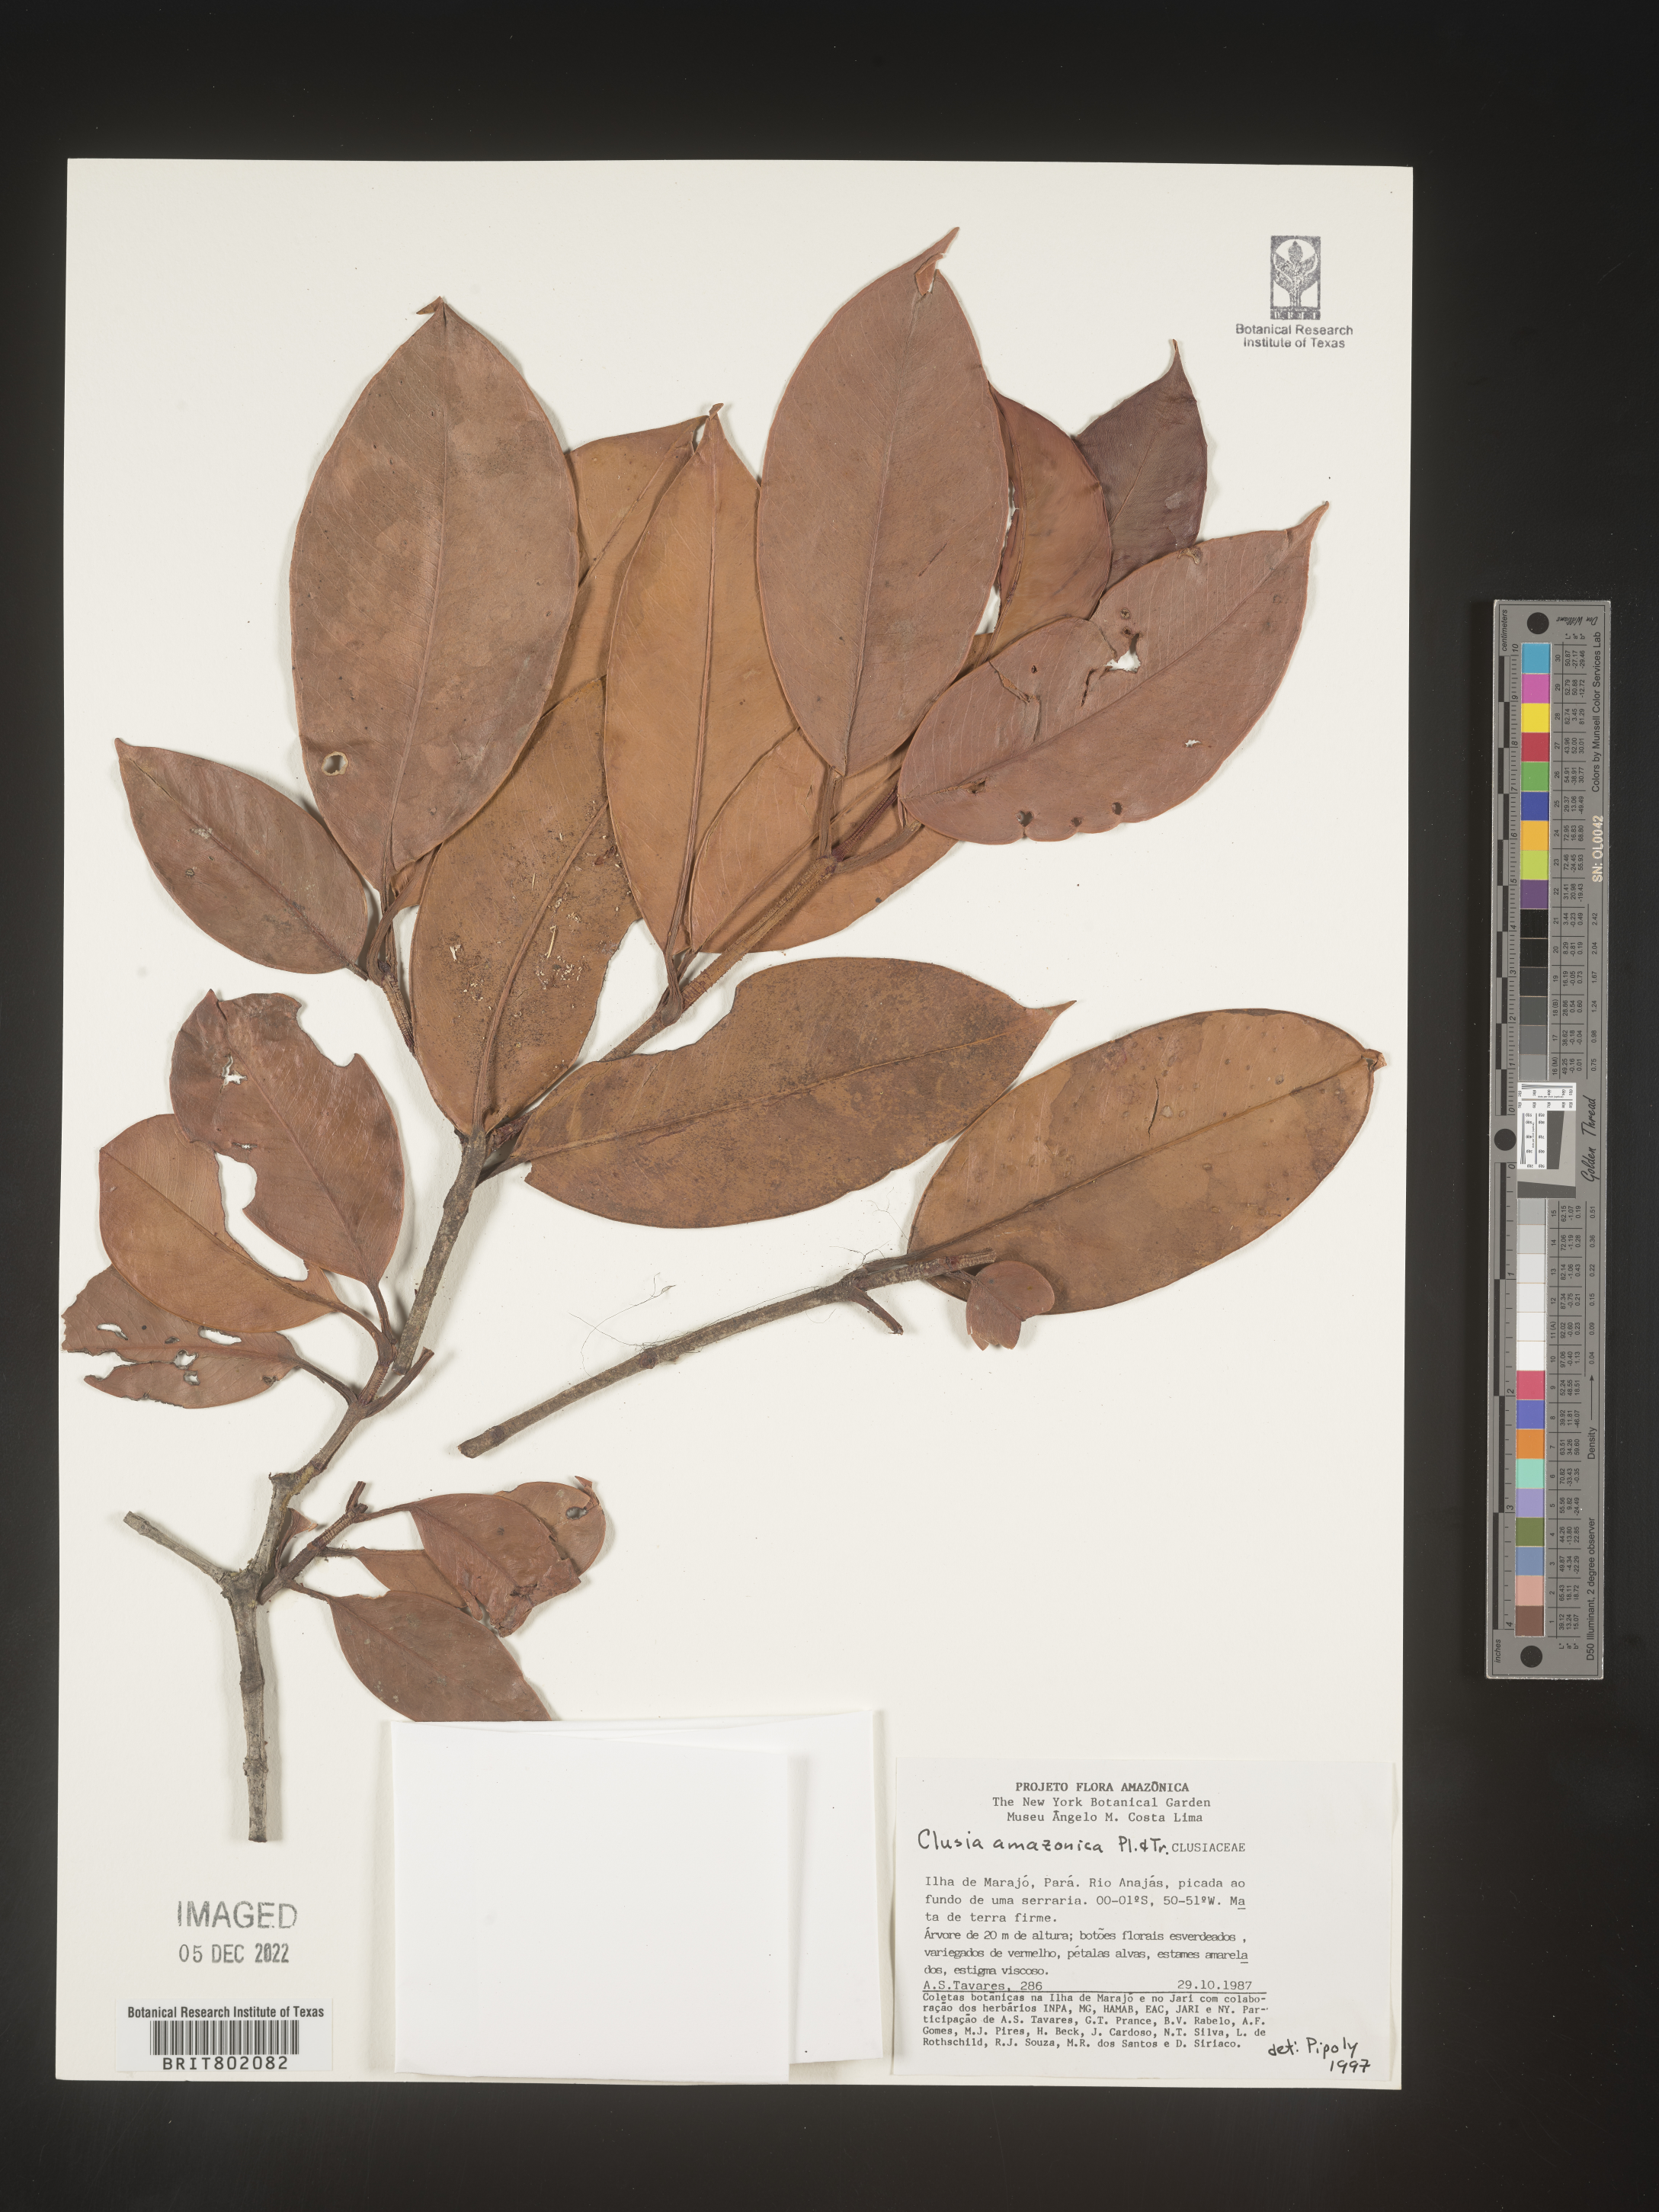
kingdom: Plantae
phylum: Tracheophyta
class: Magnoliopsida
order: Malpighiales
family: Clusiaceae
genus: Clusia
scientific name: Clusia amazonica
